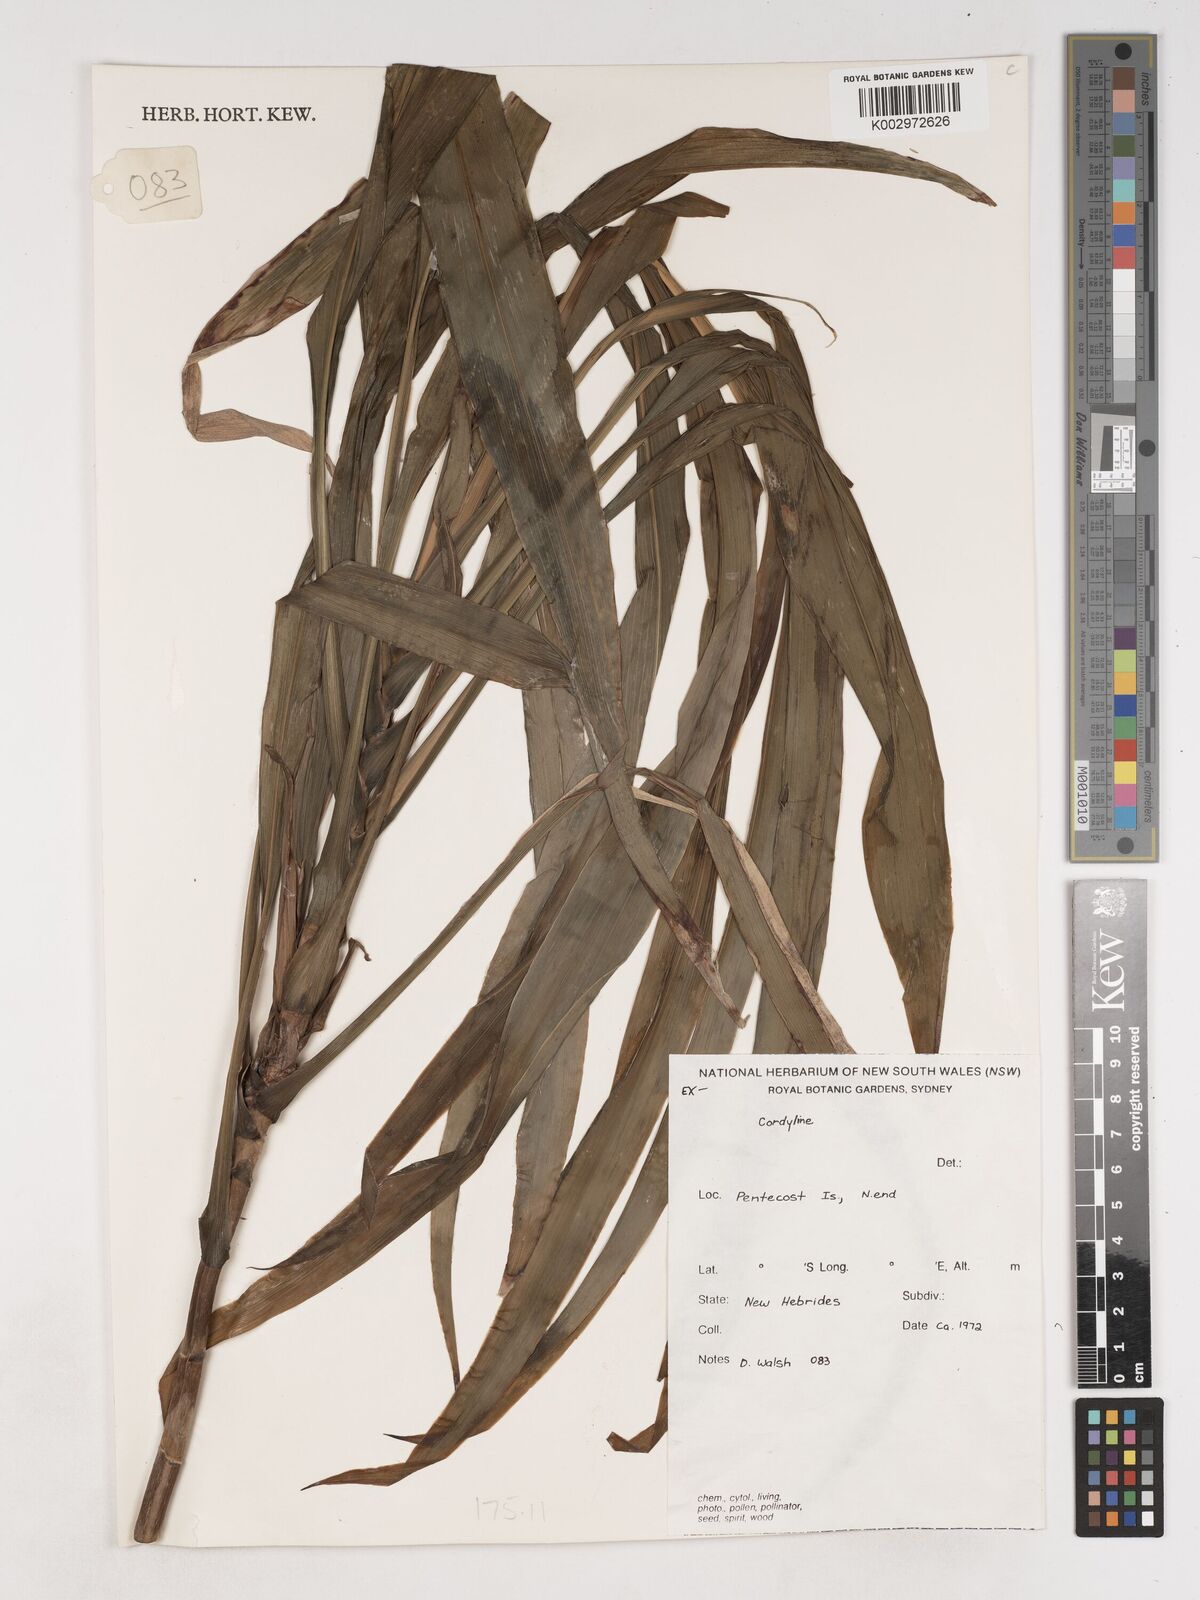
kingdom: Plantae
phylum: Tracheophyta
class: Liliopsida
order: Asparagales
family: Asparagaceae
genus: Cordyline
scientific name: Cordyline
